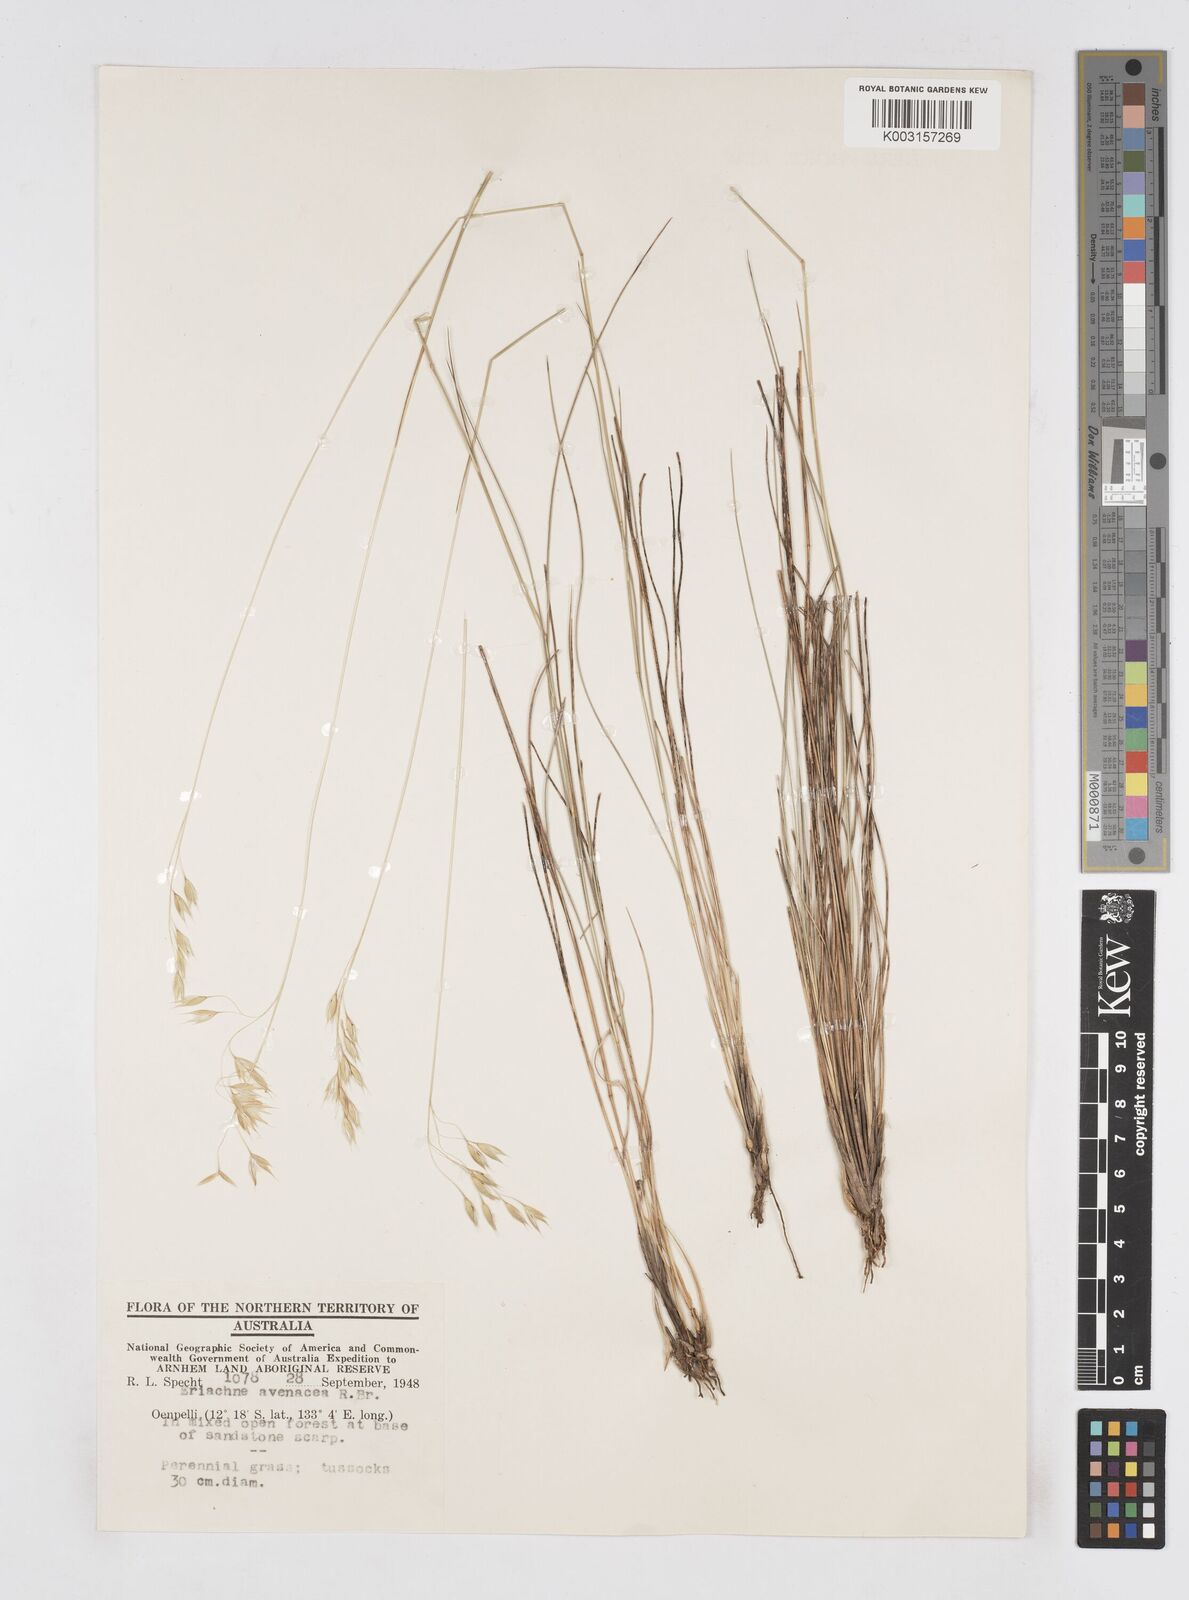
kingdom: Plantae
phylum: Tracheophyta
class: Liliopsida
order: Poales
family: Poaceae
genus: Eriachne
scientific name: Eriachne avenacea
